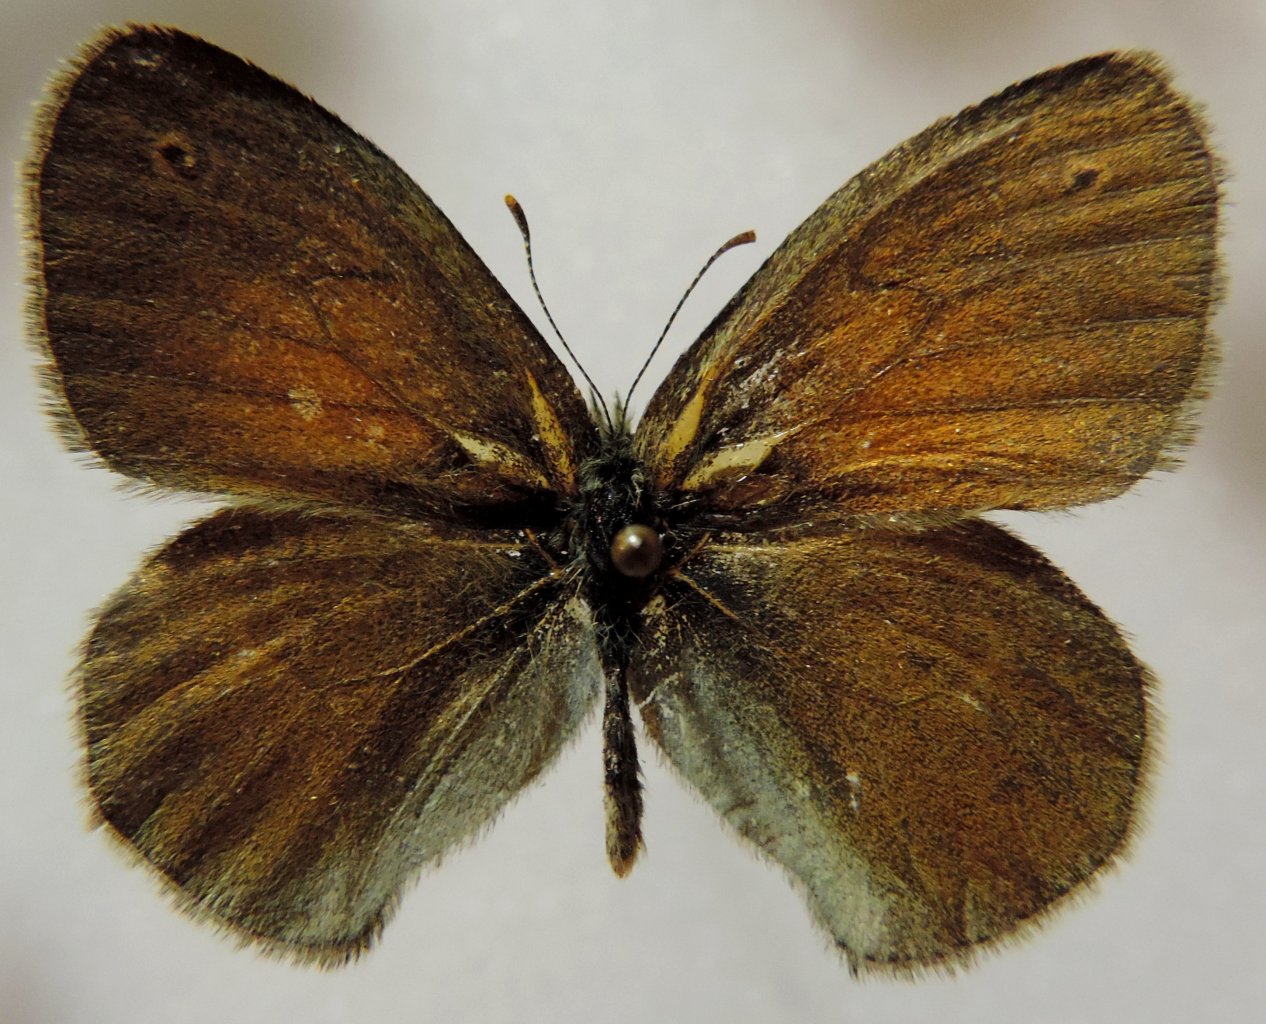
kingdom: Animalia
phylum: Arthropoda
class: Insecta
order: Lepidoptera
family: Nymphalidae
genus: Coenonympha
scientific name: Coenonympha tullia
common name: Large Heath
